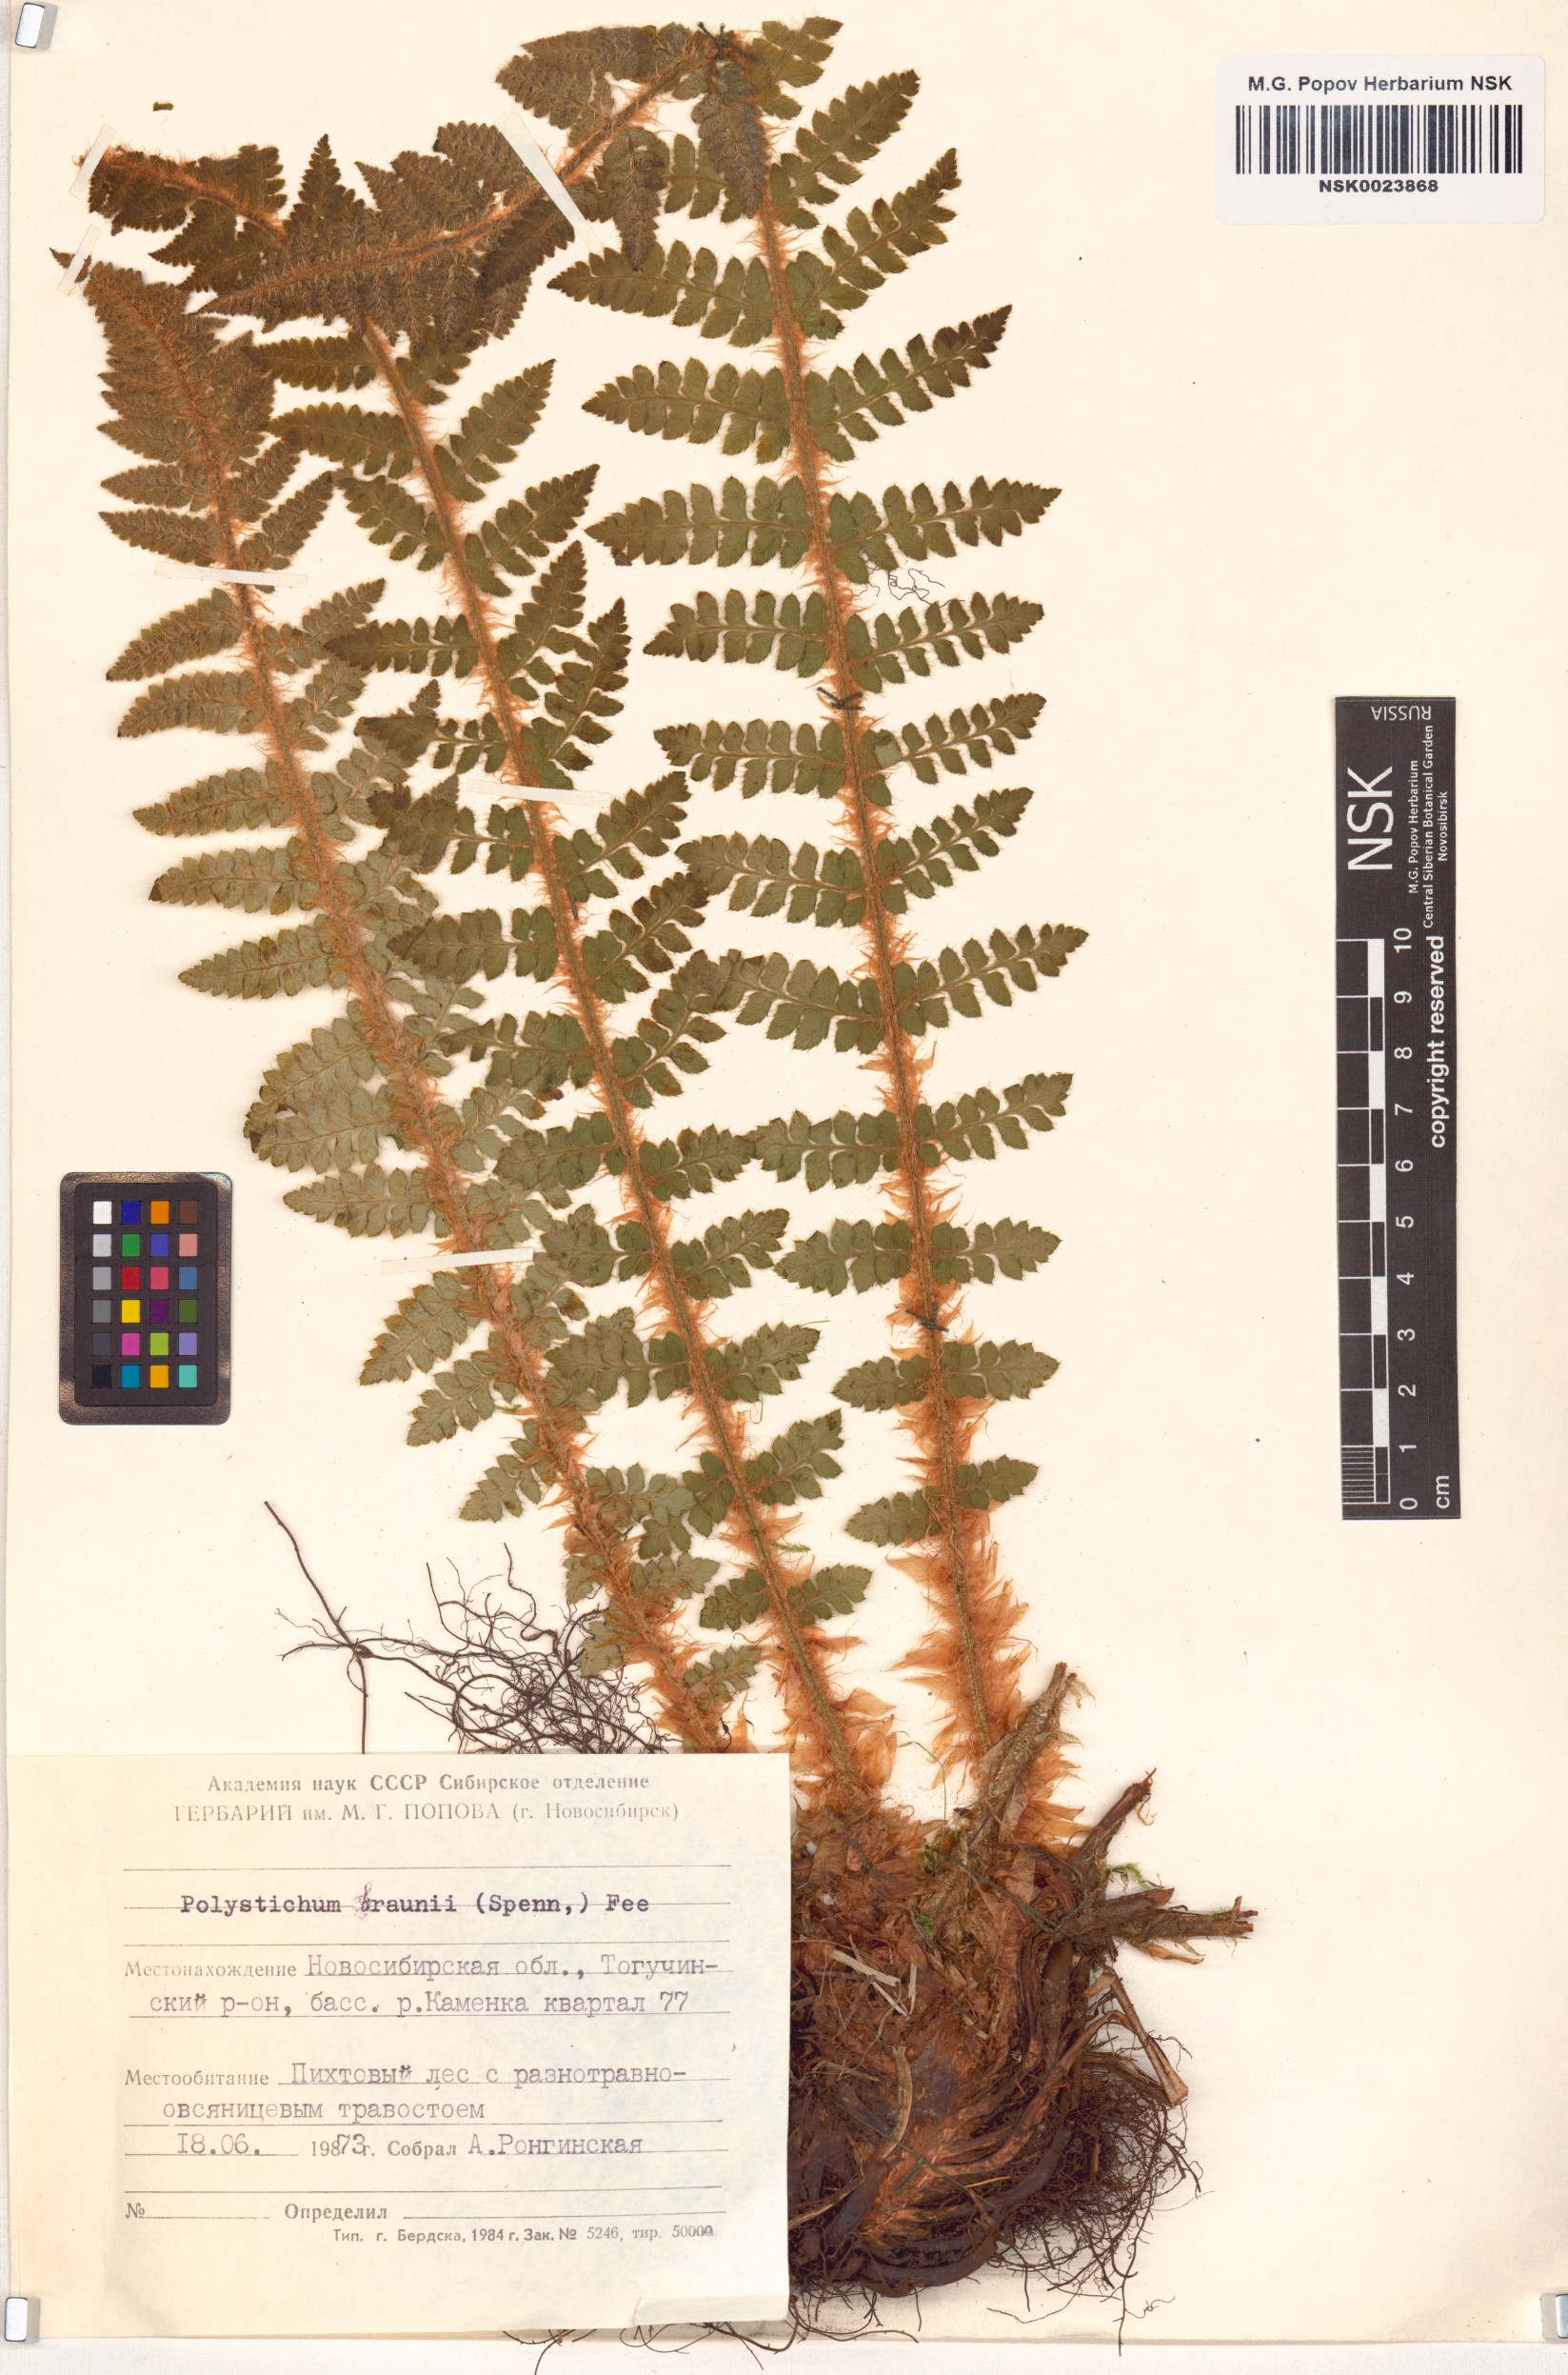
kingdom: Plantae
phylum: Tracheophyta
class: Polypodiopsida
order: Polypodiales
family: Dryopteridaceae
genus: Polystichum
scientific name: Polystichum braunii
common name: Braun's holly fern
